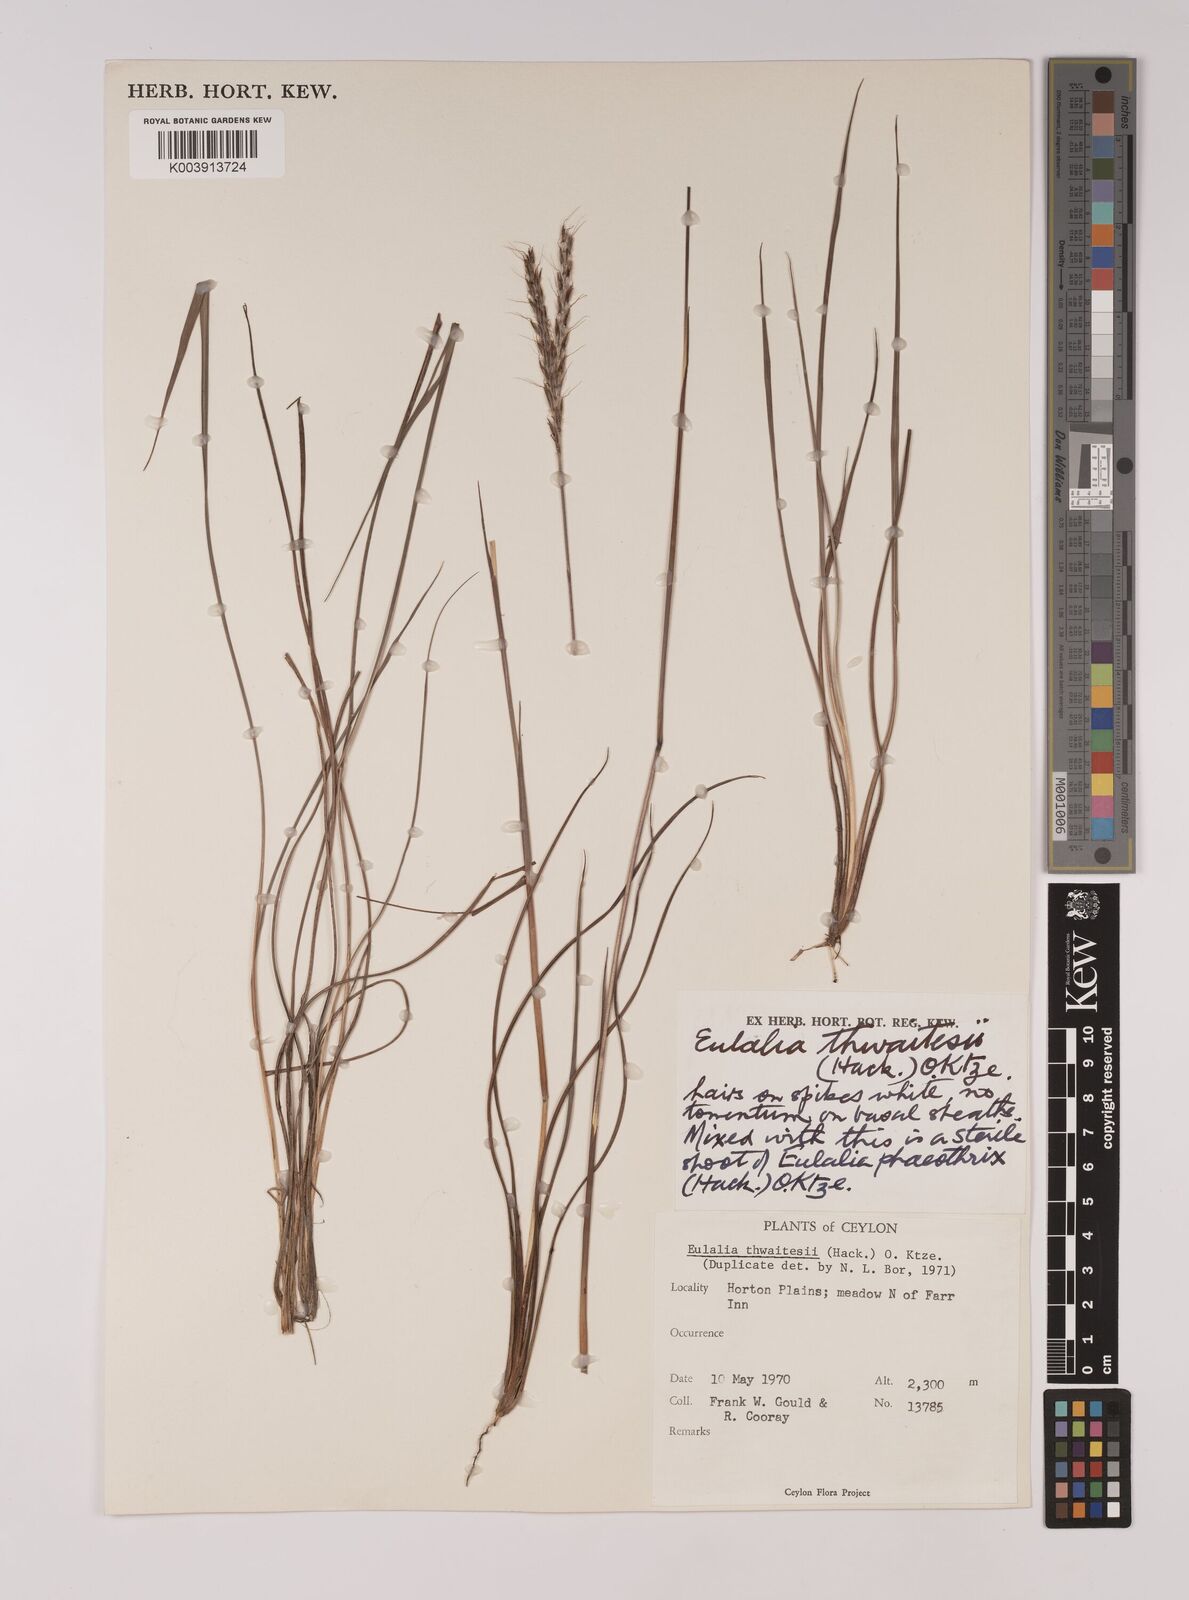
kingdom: Plantae
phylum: Tracheophyta
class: Liliopsida
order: Poales
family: Poaceae
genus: Eulalia
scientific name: Eulalia thwaitesii
